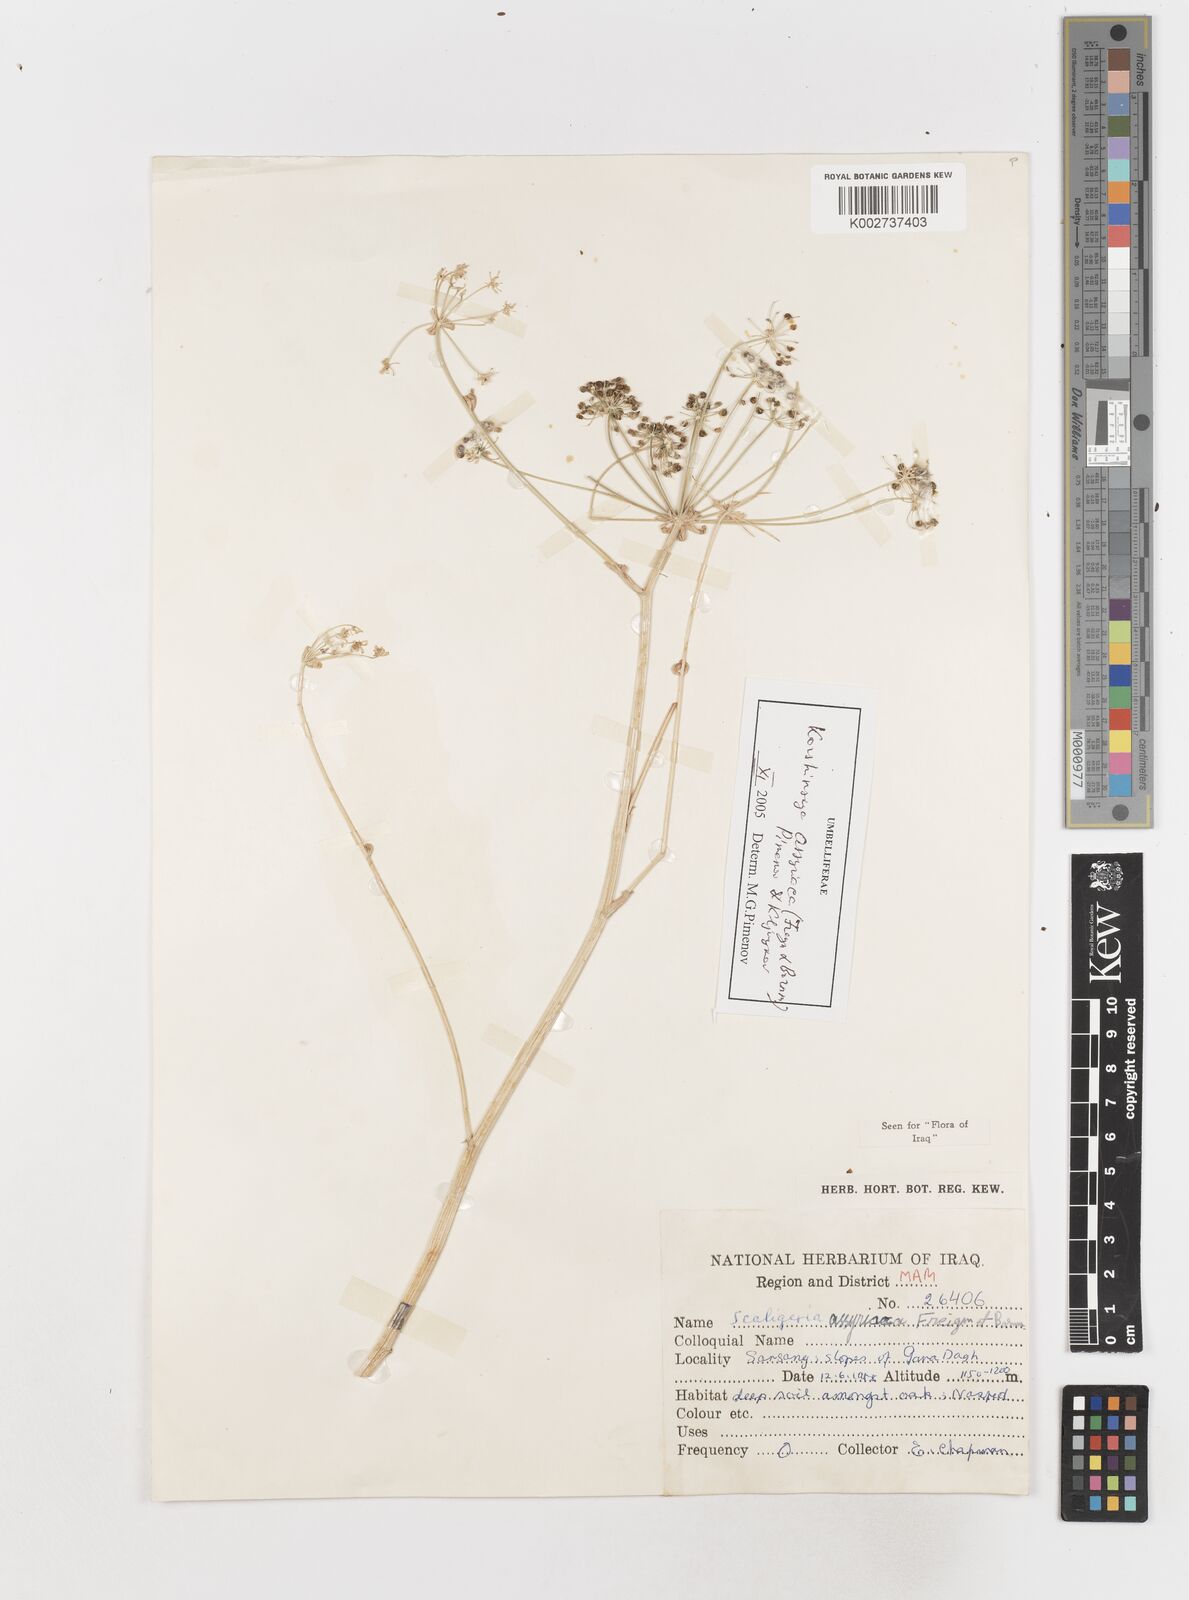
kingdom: Plantae
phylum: Tracheophyta
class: Magnoliopsida
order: Apiales
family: Apiaceae
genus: Korshinskia
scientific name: Korshinskia assyriaca
